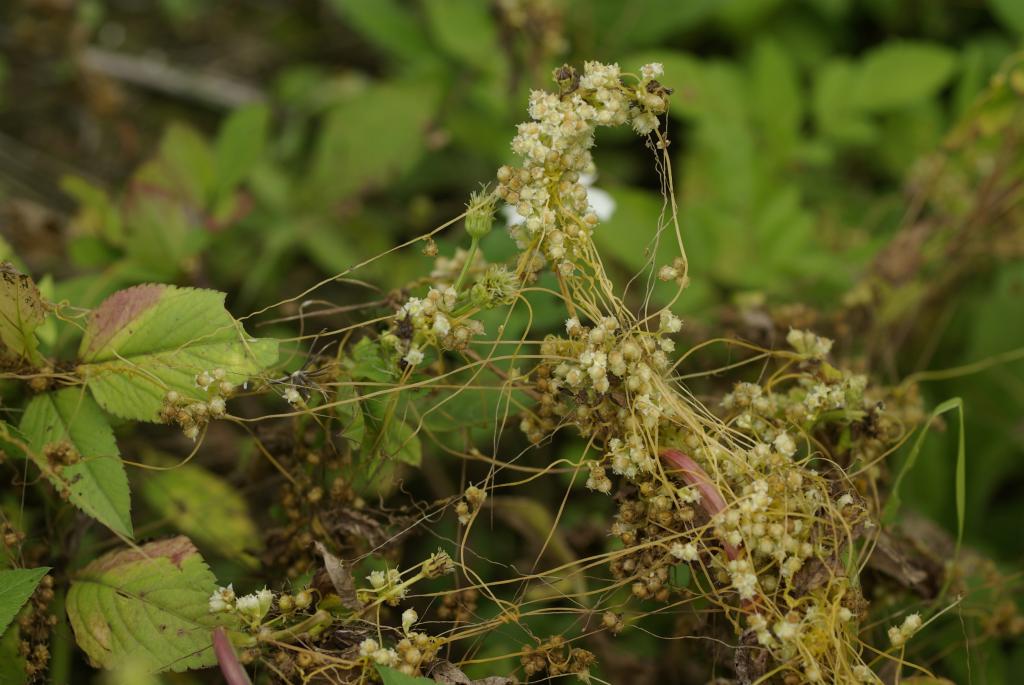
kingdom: Plantae
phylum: Tracheophyta
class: Magnoliopsida
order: Solanales
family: Convolvulaceae
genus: Cuscuta
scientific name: Cuscuta campestris
